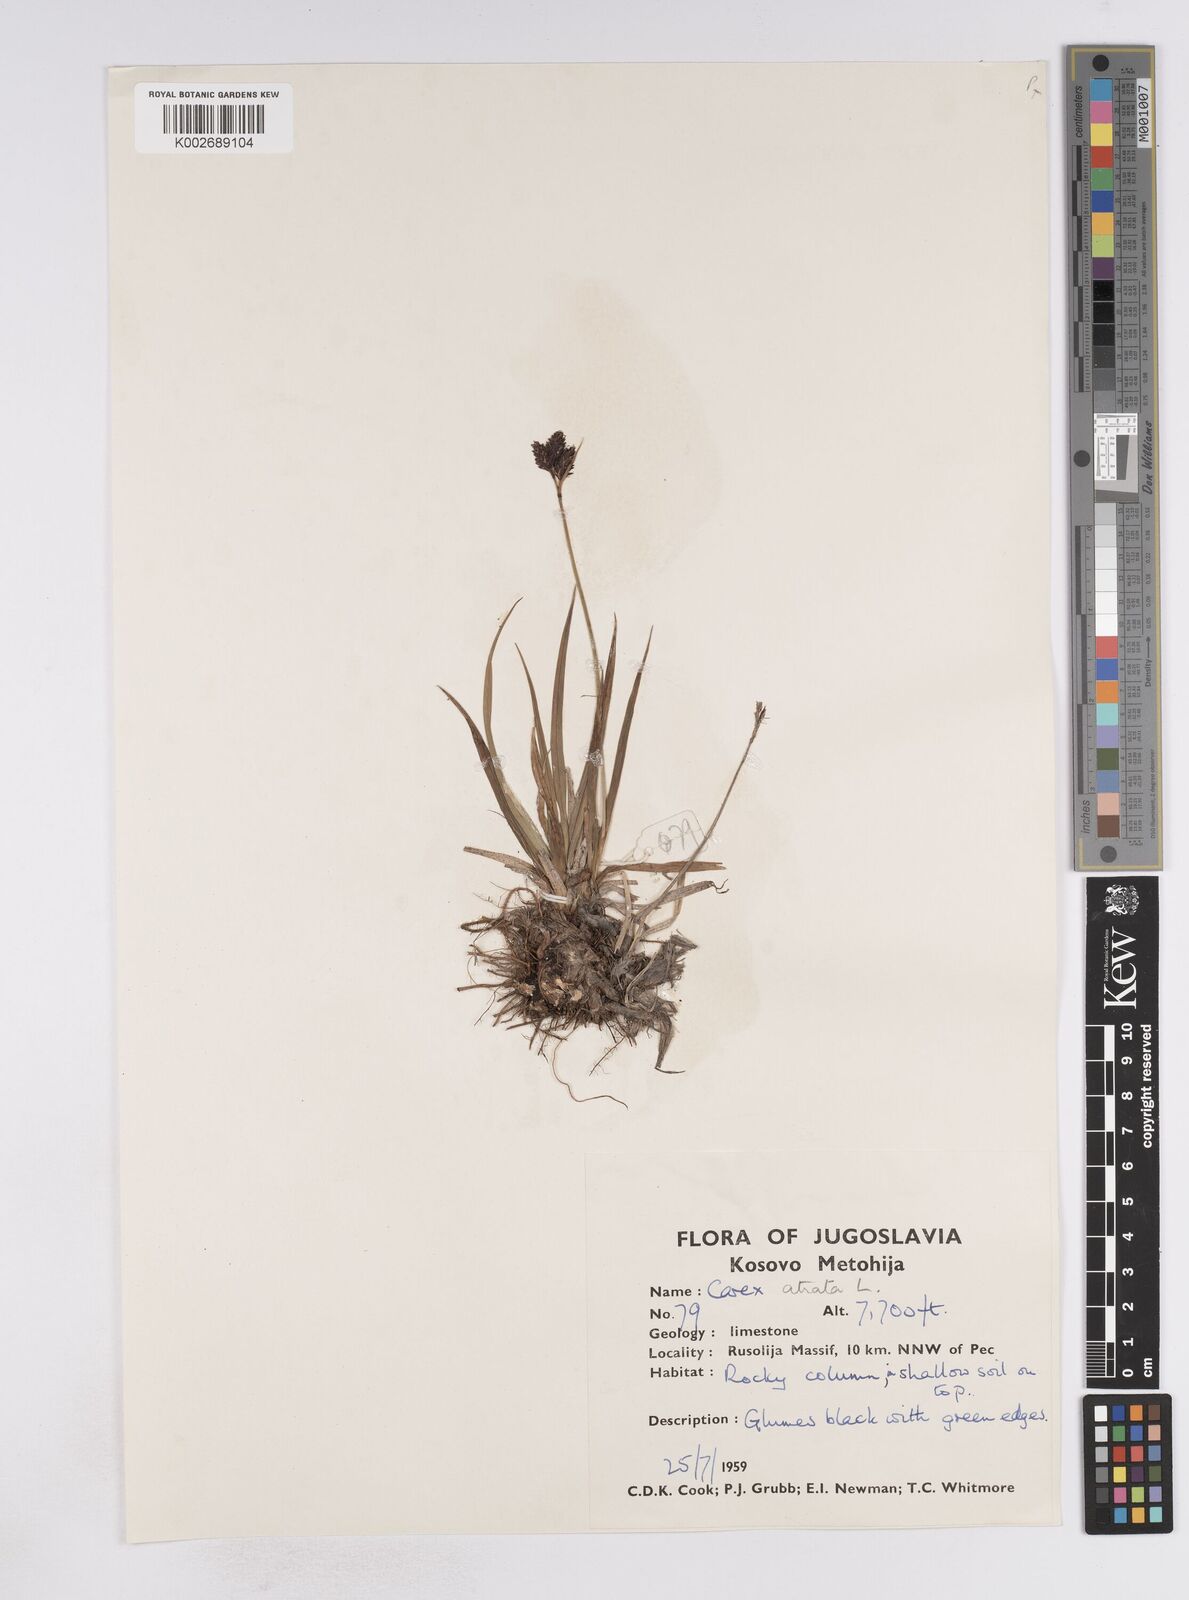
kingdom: Plantae
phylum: Tracheophyta
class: Liliopsida
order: Poales
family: Cyperaceae
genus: Carex
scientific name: Carex atrata
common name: Black alpine sedge
